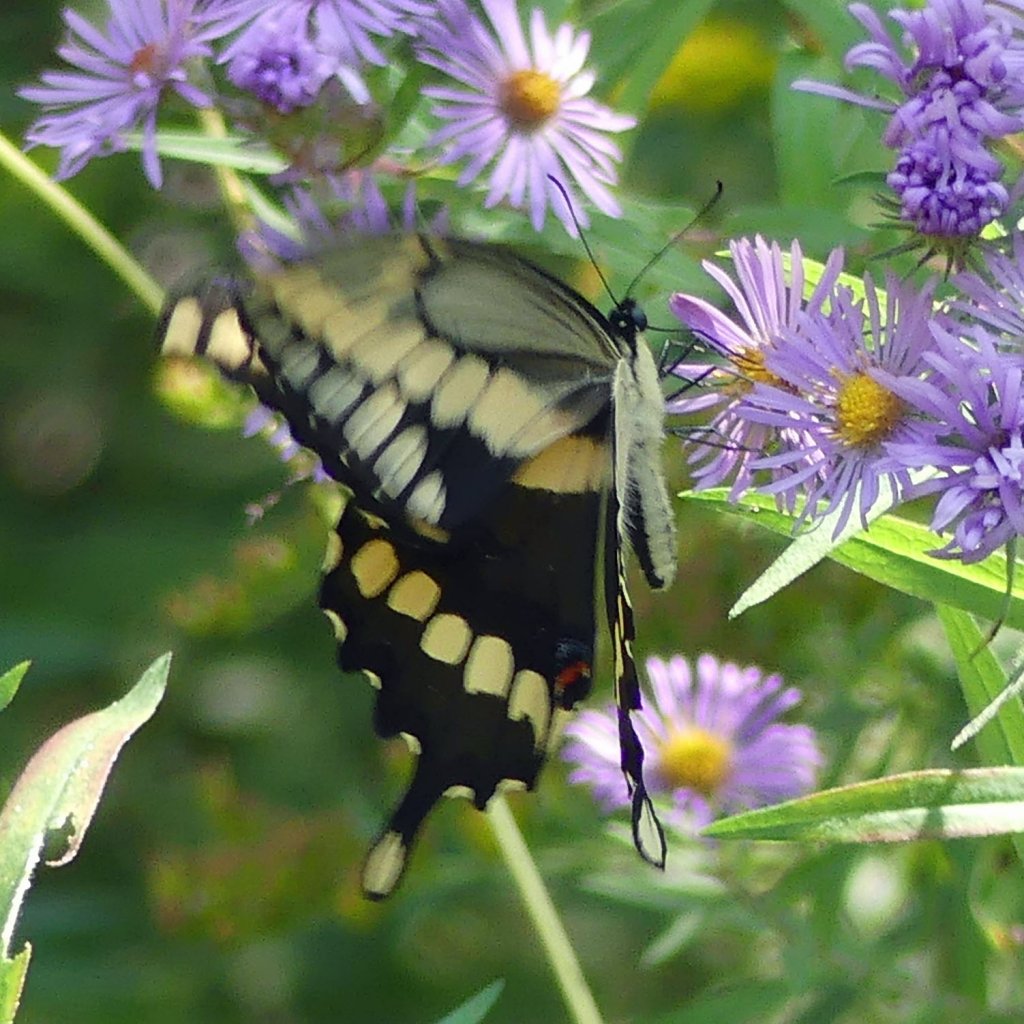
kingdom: Animalia
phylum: Arthropoda
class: Insecta
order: Lepidoptera
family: Papilionidae
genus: Papilio
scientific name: Papilio cresphontes
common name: Eastern Giant Swallowtail
